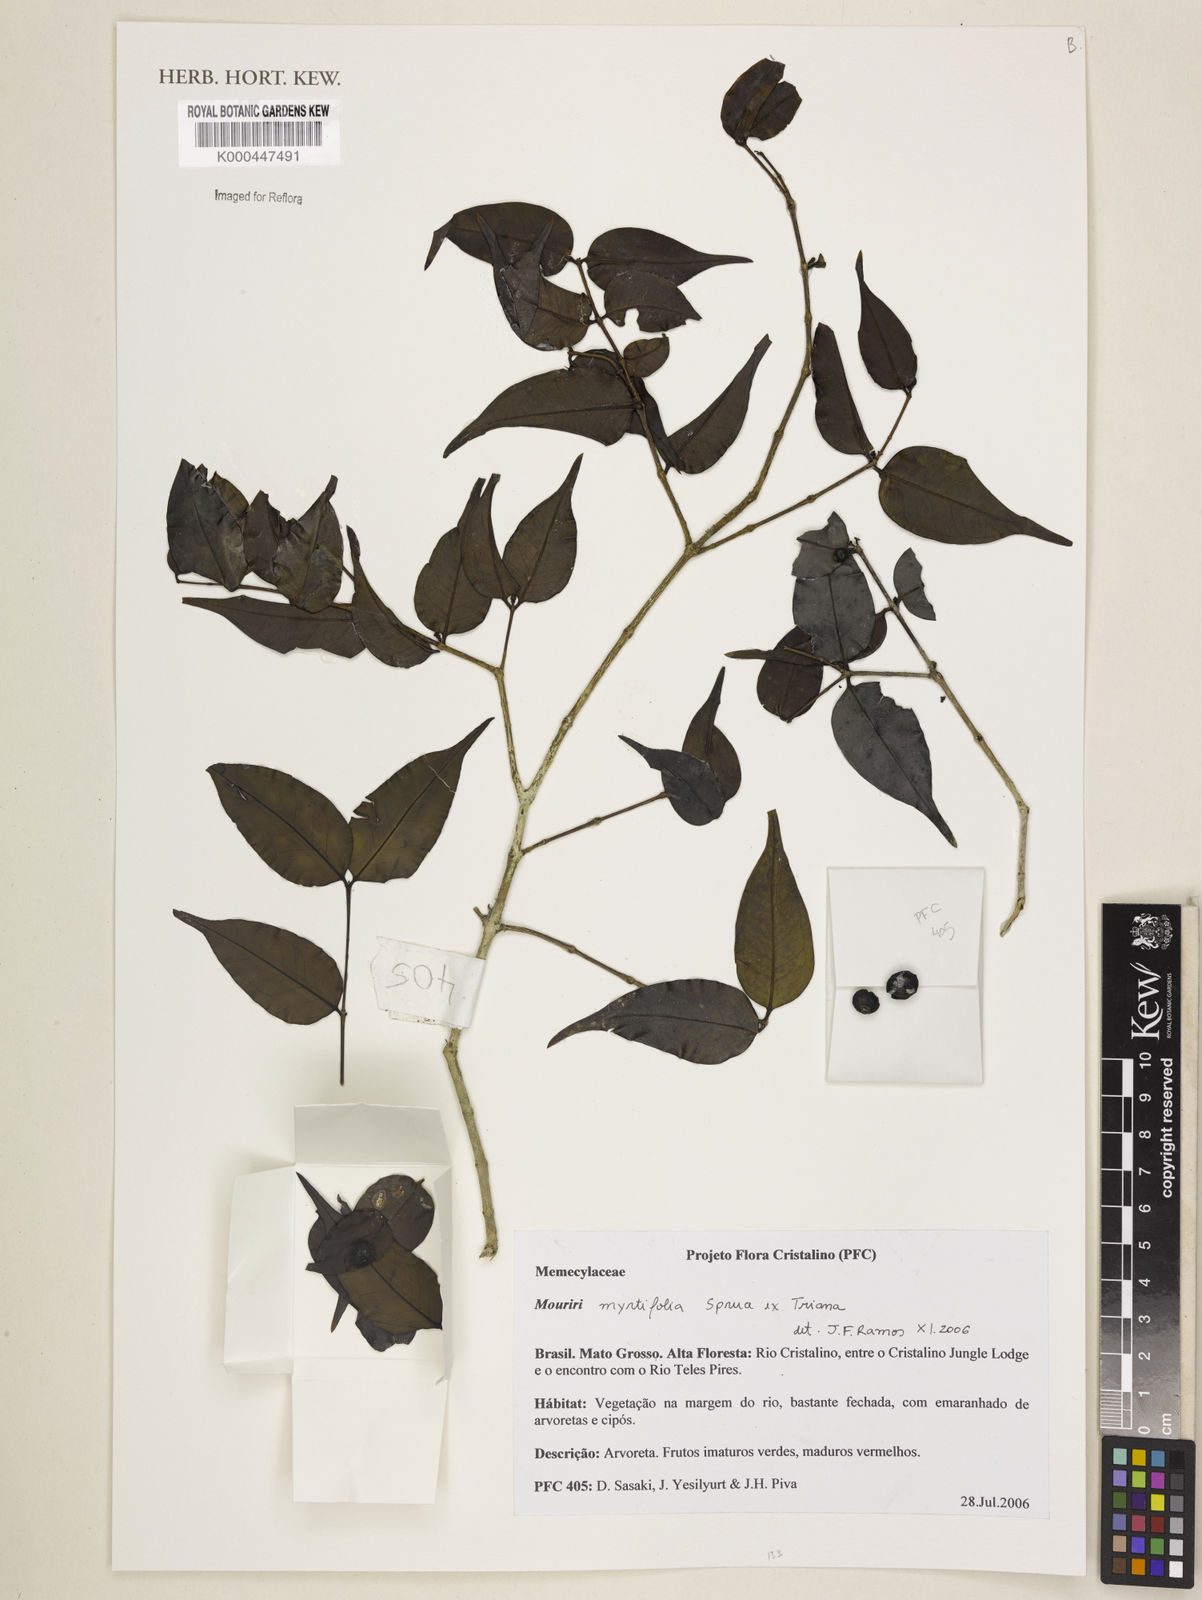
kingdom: Plantae
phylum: Tracheophyta
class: Magnoliopsida
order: Myrtales
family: Melastomataceae
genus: Mouriri
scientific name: Mouriri myrtifolia
